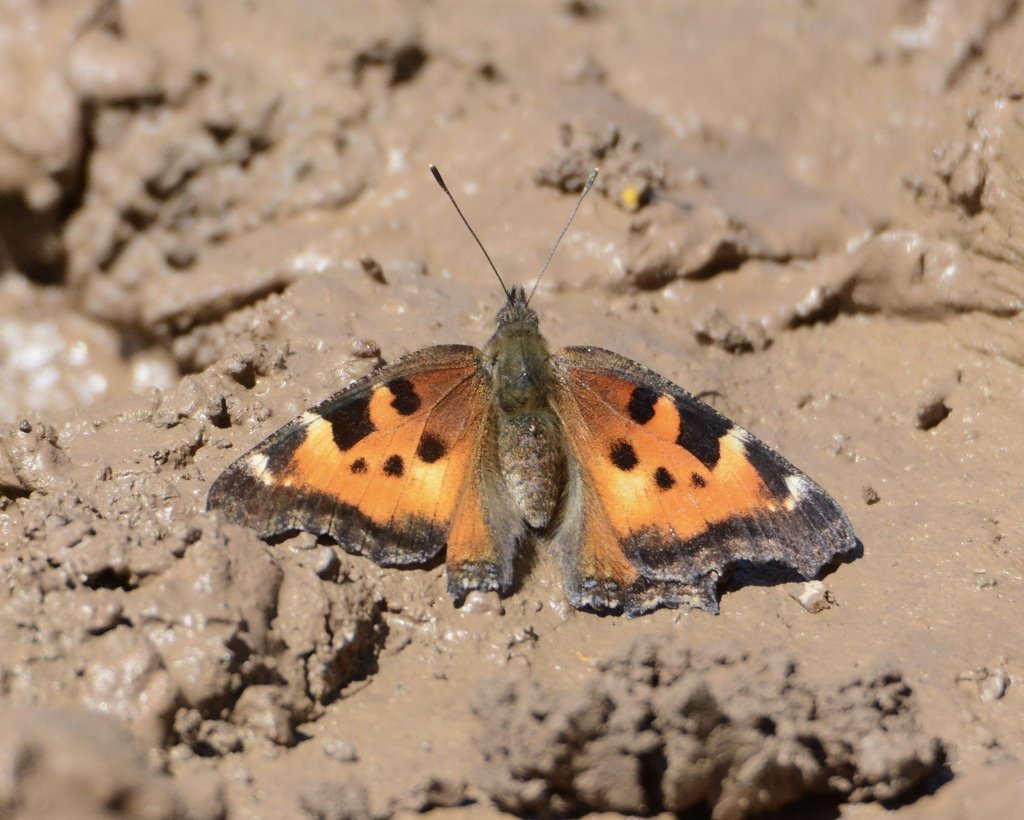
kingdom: Animalia
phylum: Arthropoda
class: Insecta
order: Lepidoptera
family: Nymphalidae
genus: Nymphalis
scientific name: Nymphalis californica
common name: California Tortoiseshell
